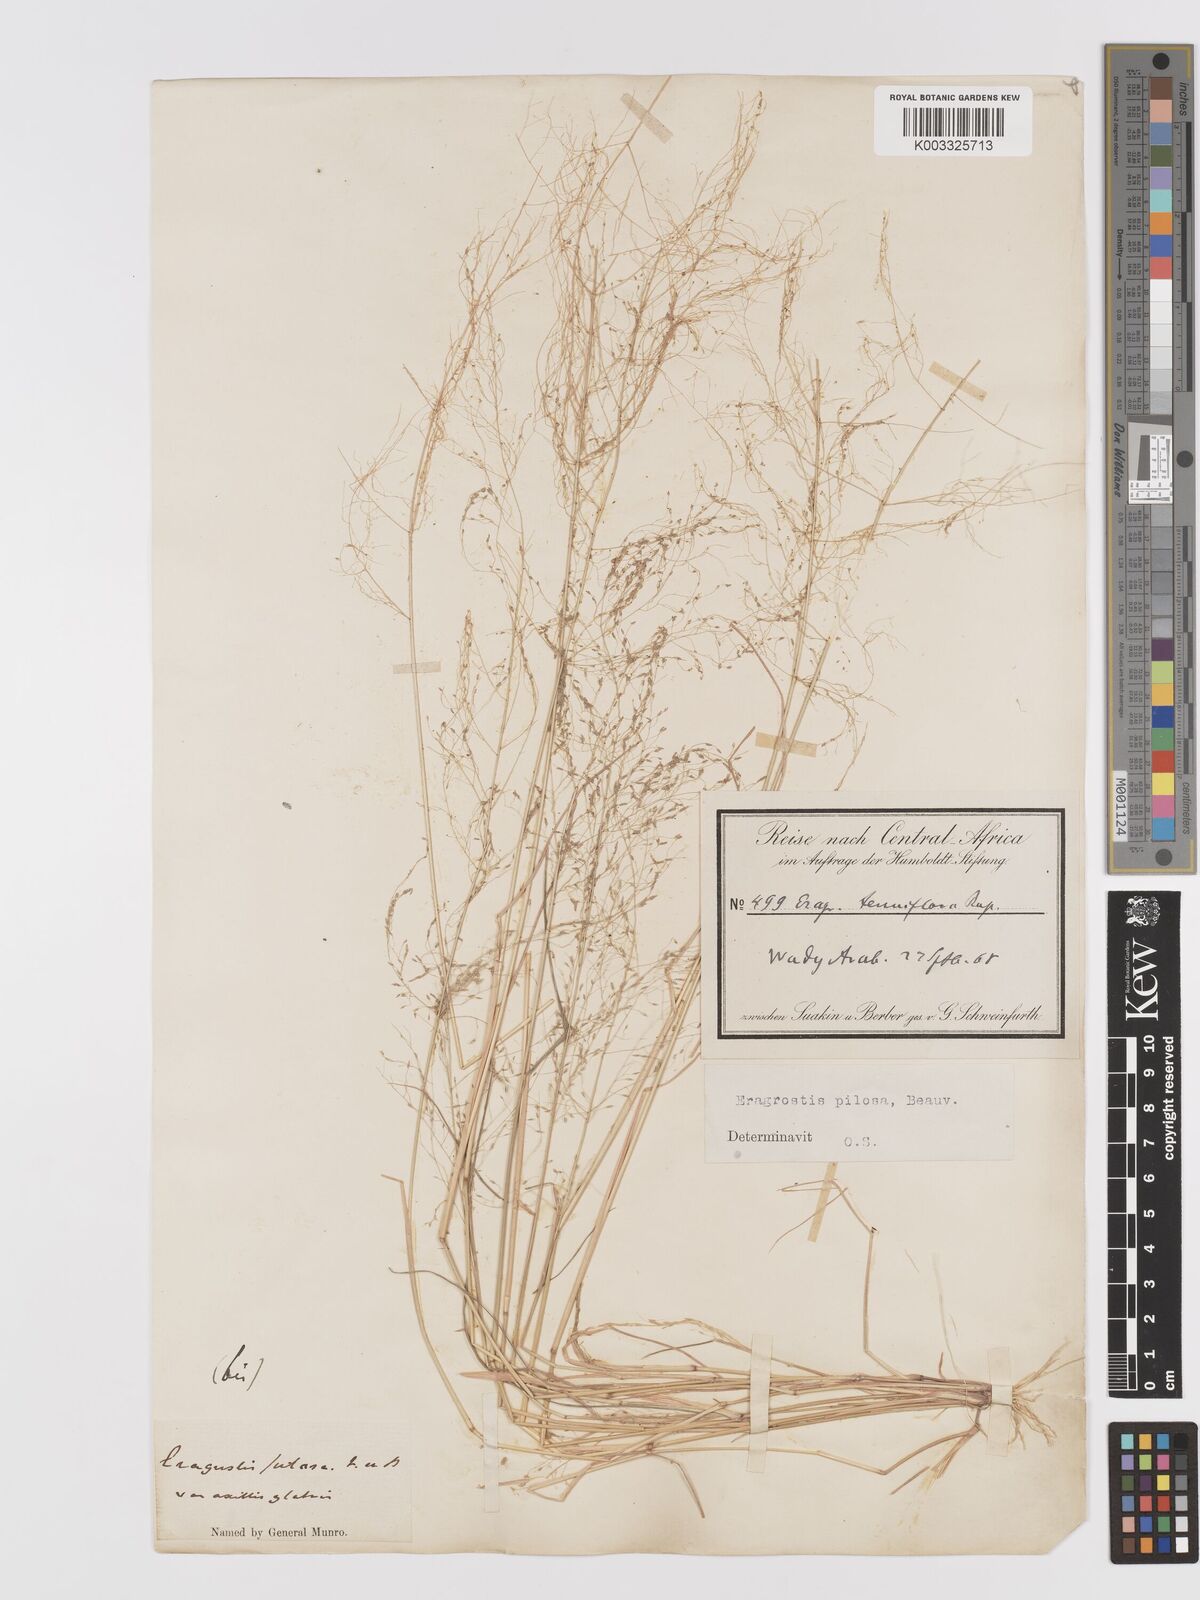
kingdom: Plantae
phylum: Tracheophyta
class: Liliopsida
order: Poales
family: Poaceae
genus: Eragrostis
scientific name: Eragrostis pilosa
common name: Indian lovegrass
